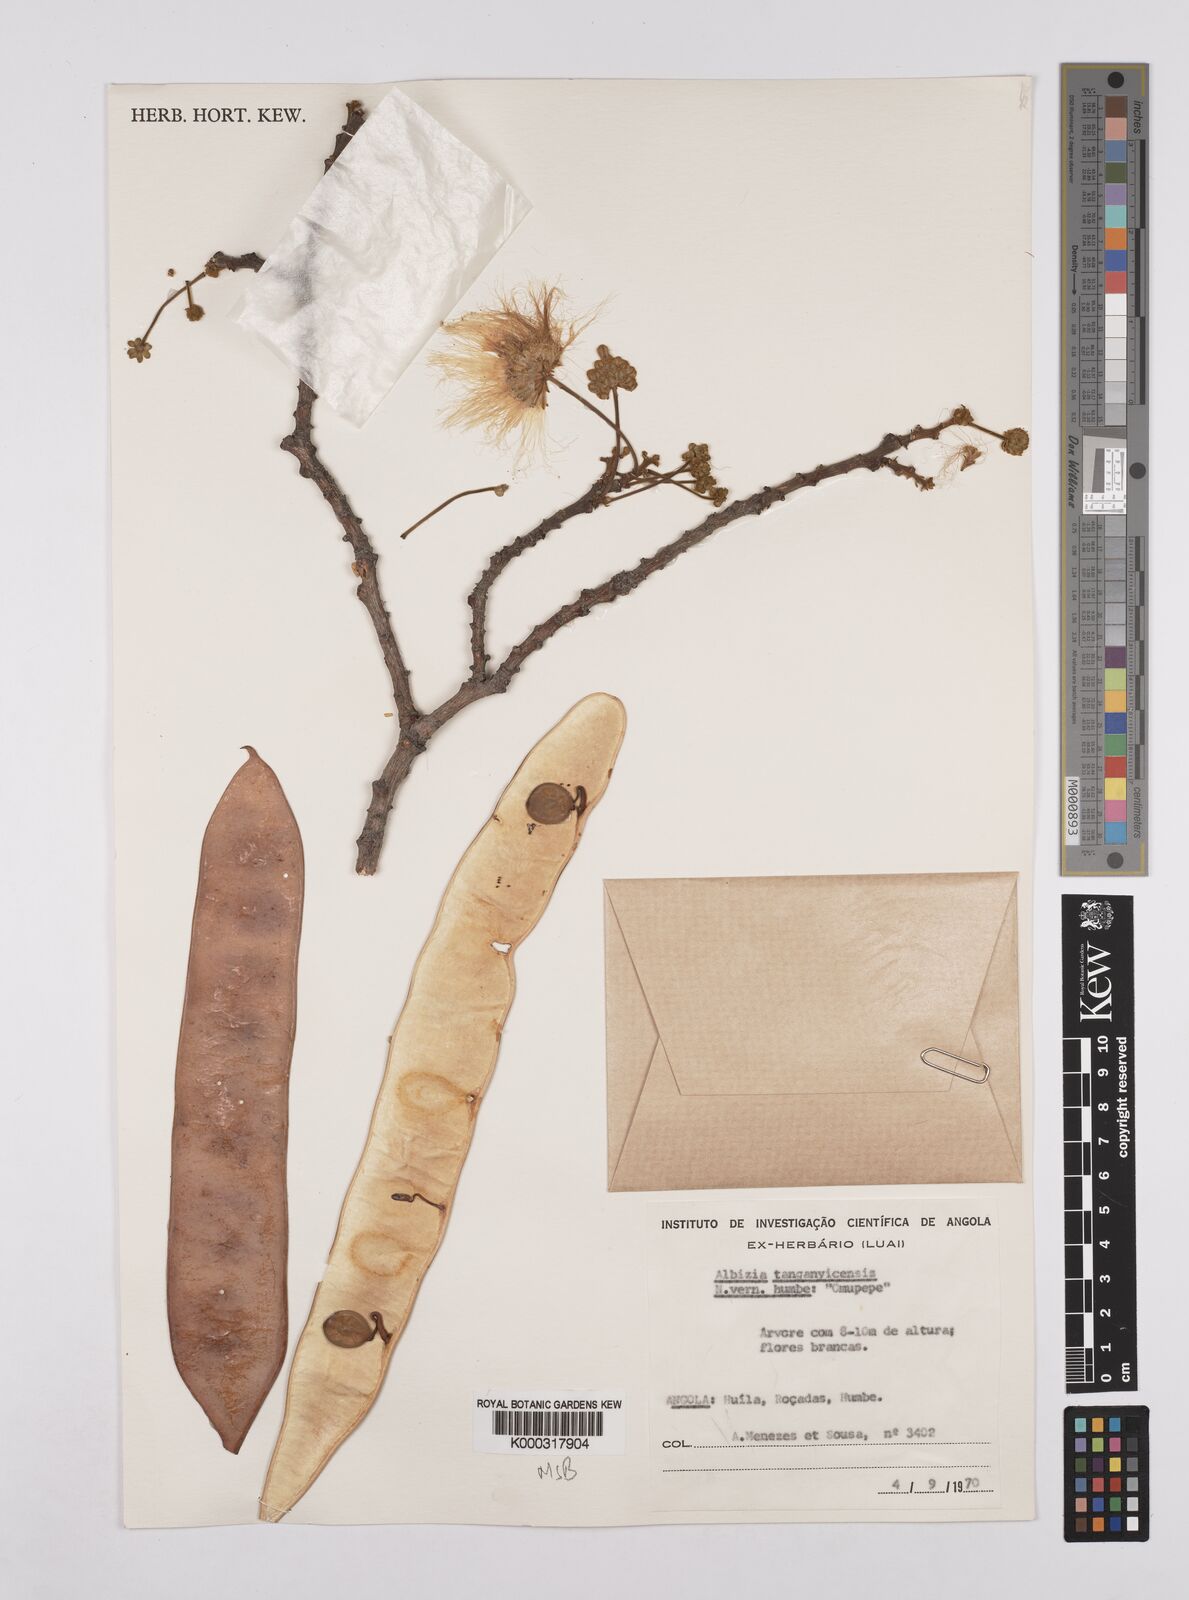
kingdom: Plantae
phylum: Tracheophyta
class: Magnoliopsida
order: Fabales
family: Fabaceae
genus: Albizia
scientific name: Albizia tanganyicensis
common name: Paperbark false thorn
